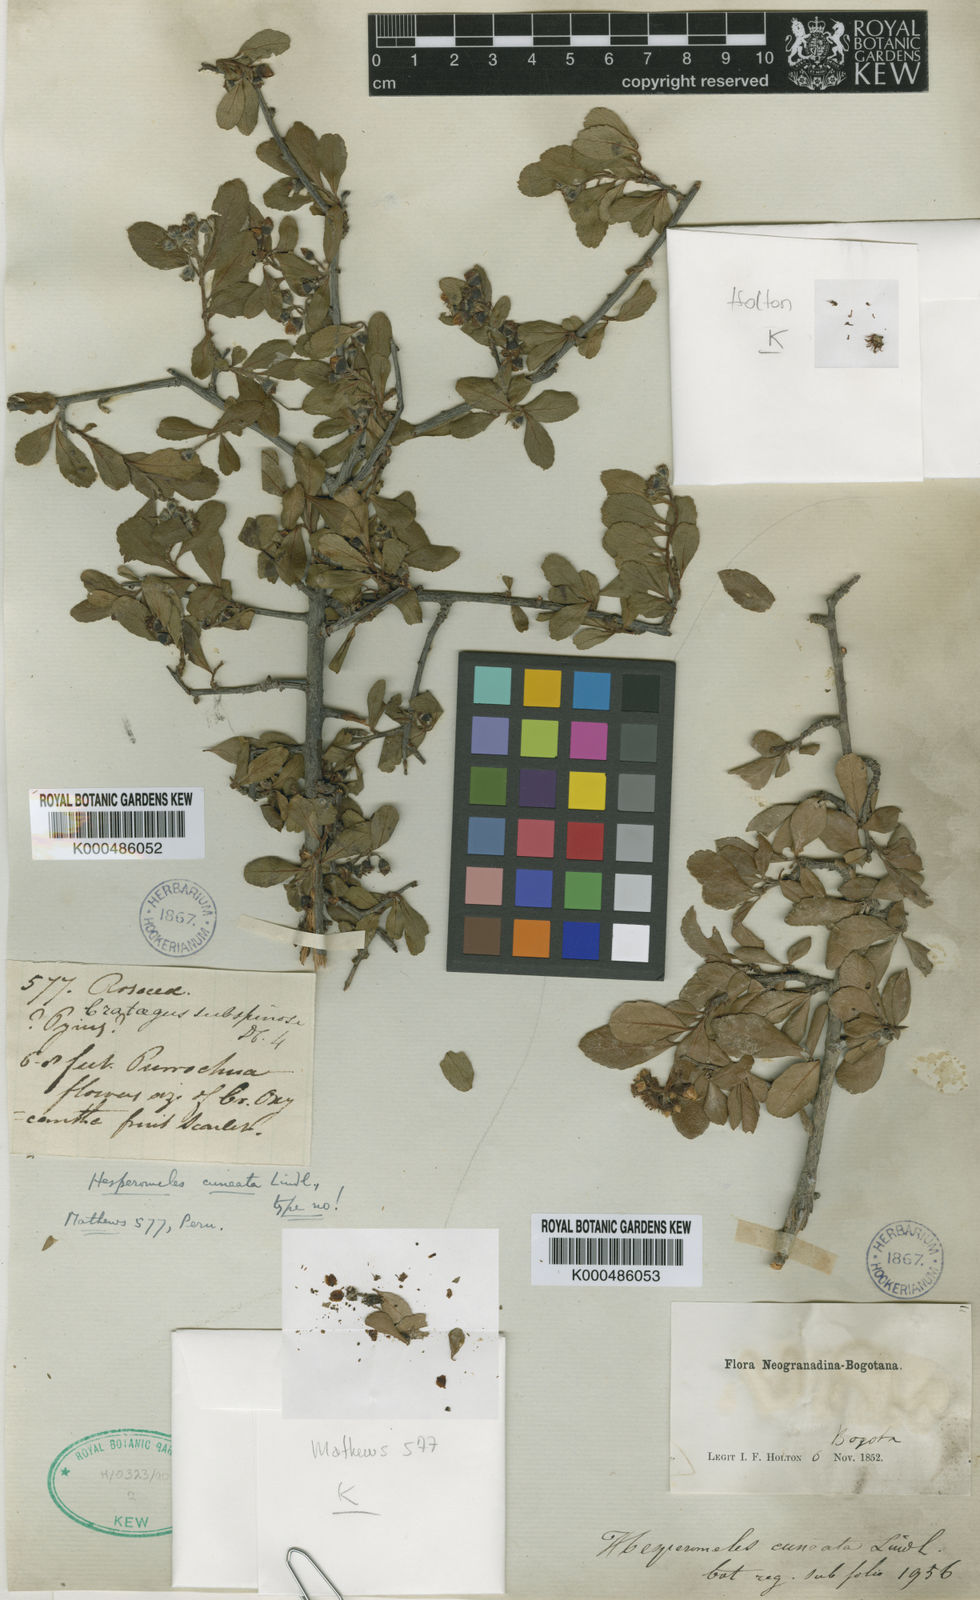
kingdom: Plantae
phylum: Tracheophyta
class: Magnoliopsida
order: Rosales
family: Rosaceae
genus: Hesperomeles
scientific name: Hesperomeles cuneata
